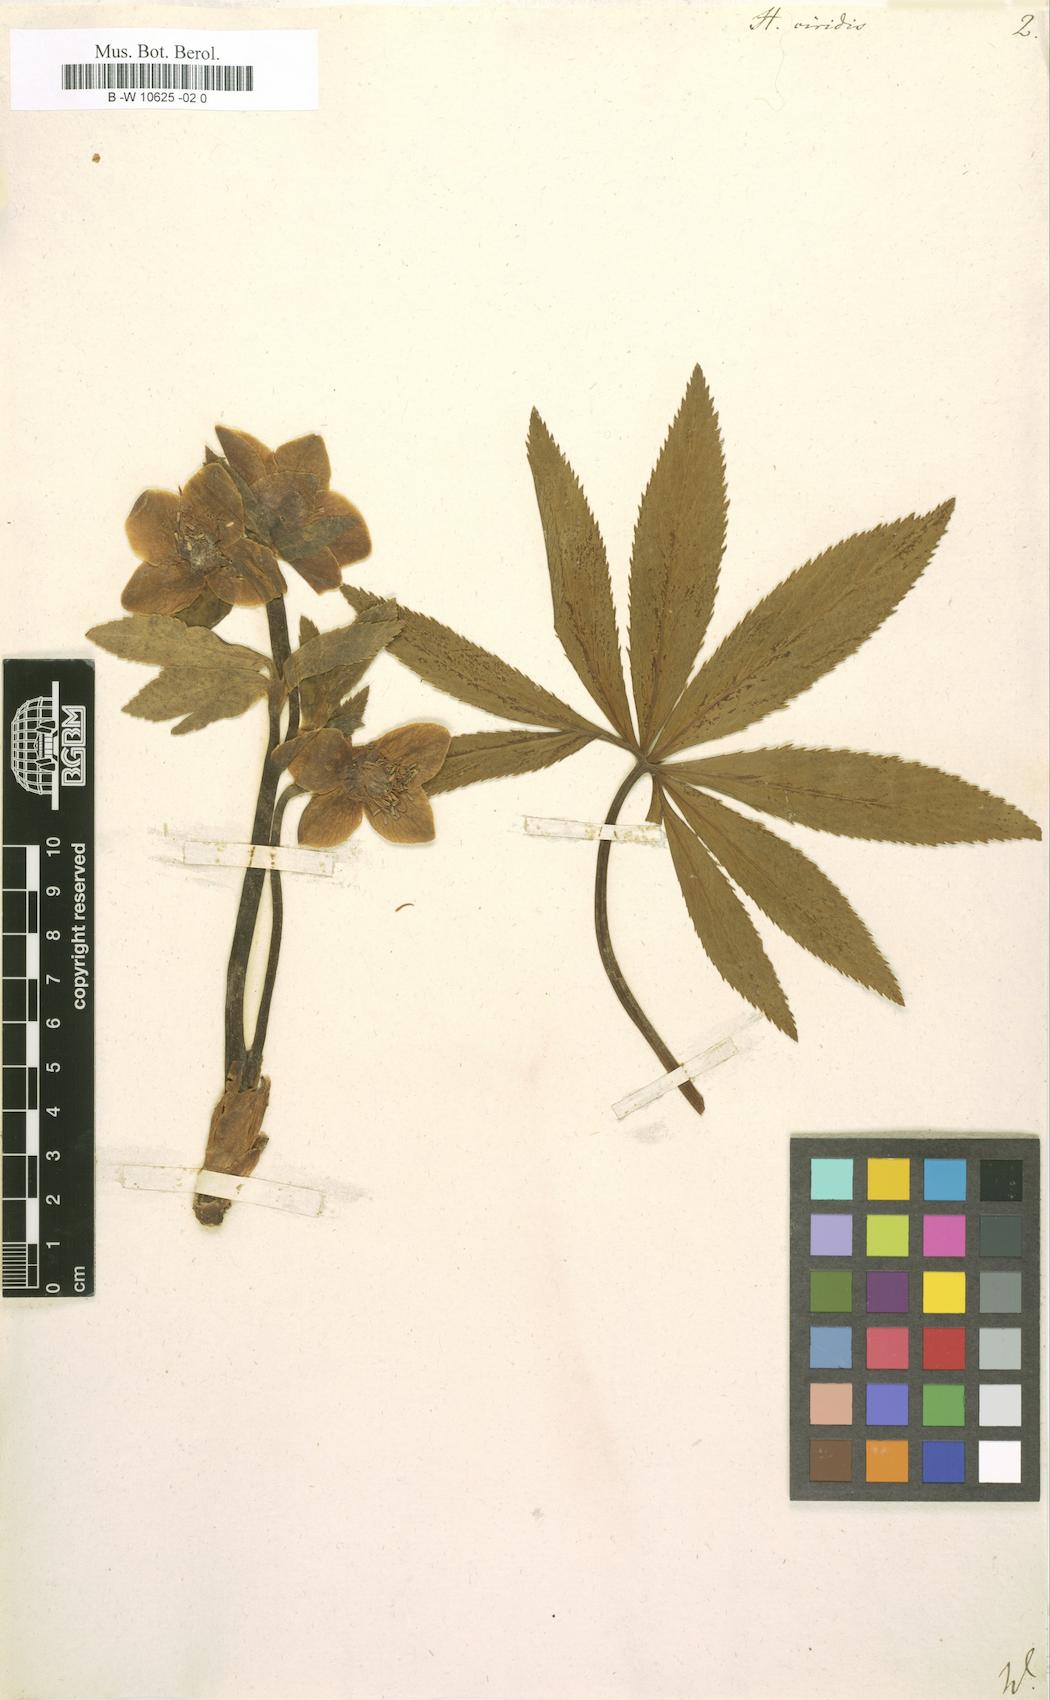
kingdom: Plantae
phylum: Tracheophyta
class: Magnoliopsida
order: Ranunculales
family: Ranunculaceae
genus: Helleborus
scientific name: Helleborus viridis
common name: Green hellebore
